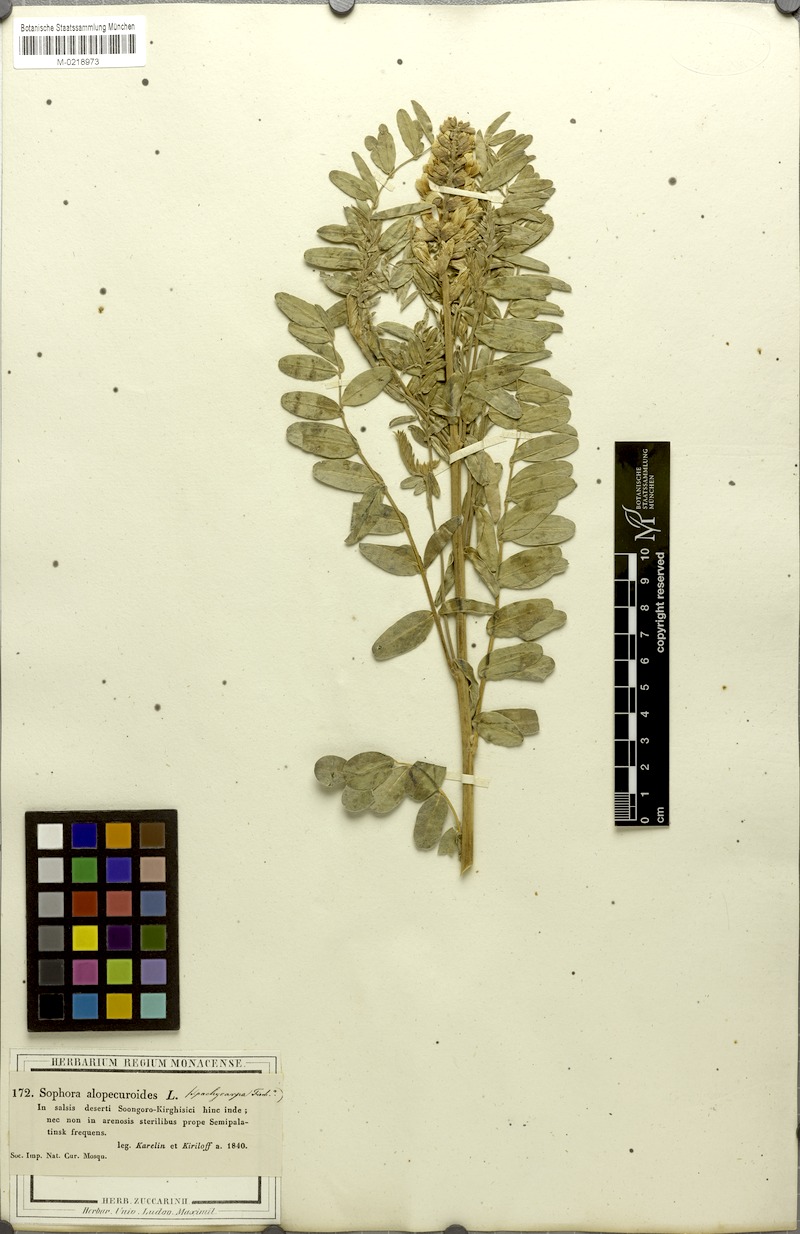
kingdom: Plantae
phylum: Tracheophyta
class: Magnoliopsida
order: Fabales
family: Fabaceae
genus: Sophora
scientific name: Sophora alopecuroides
